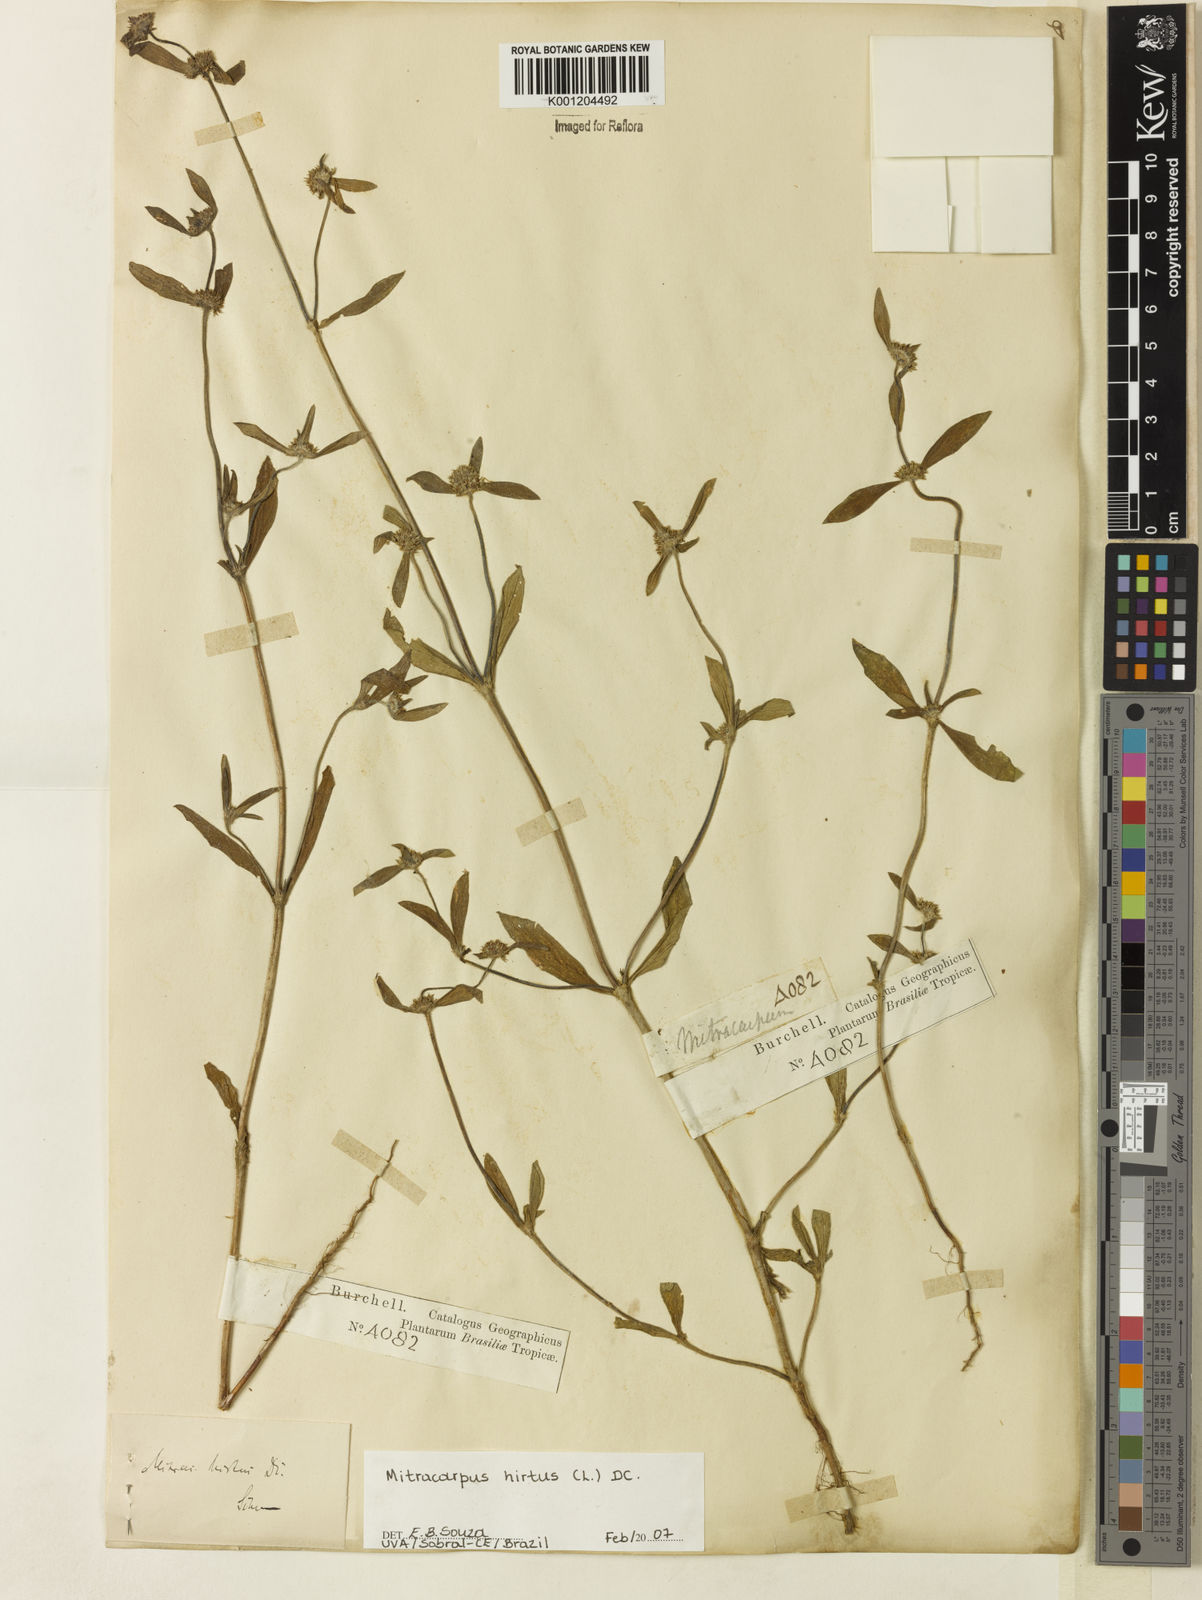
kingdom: Plantae
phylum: Tracheophyta
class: Magnoliopsida
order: Gentianales
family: Rubiaceae
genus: Mitracarpus
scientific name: Mitracarpus hirtus
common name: Tropical girdlepod
